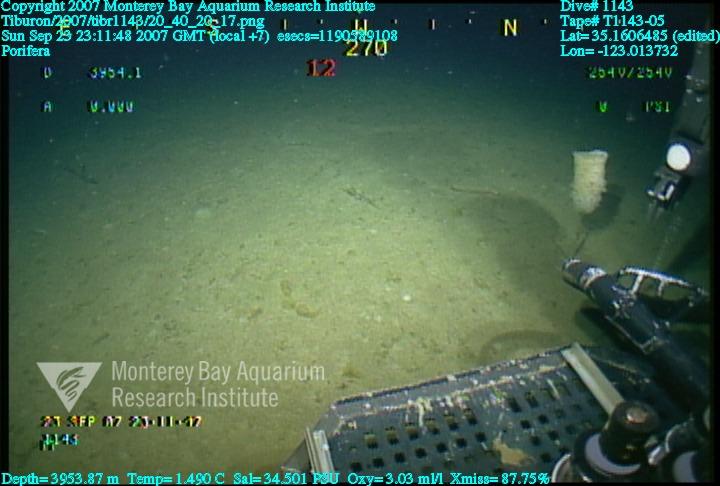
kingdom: Animalia
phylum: Porifera
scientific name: Porifera
